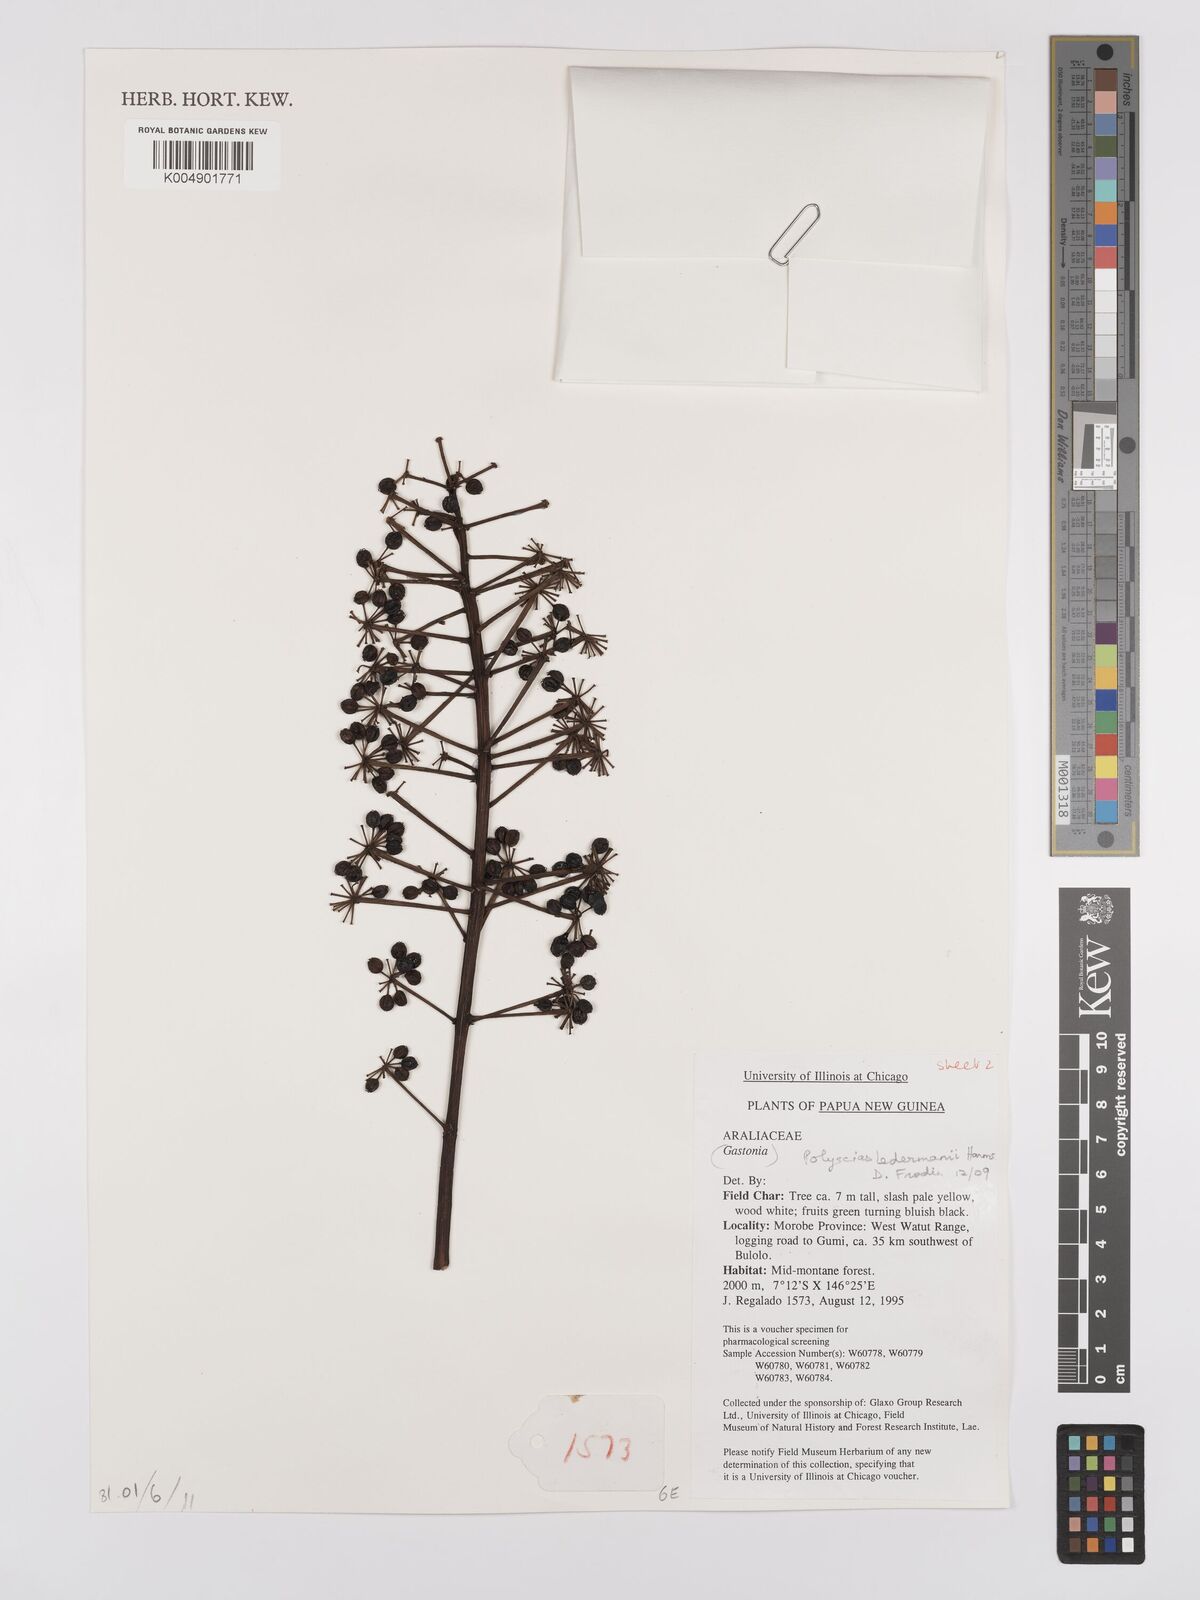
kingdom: Plantae
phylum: Tracheophyta
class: Magnoliopsida
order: Apiales
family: Araliaceae
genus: Polyscias
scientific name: Polyscias ledermannii
